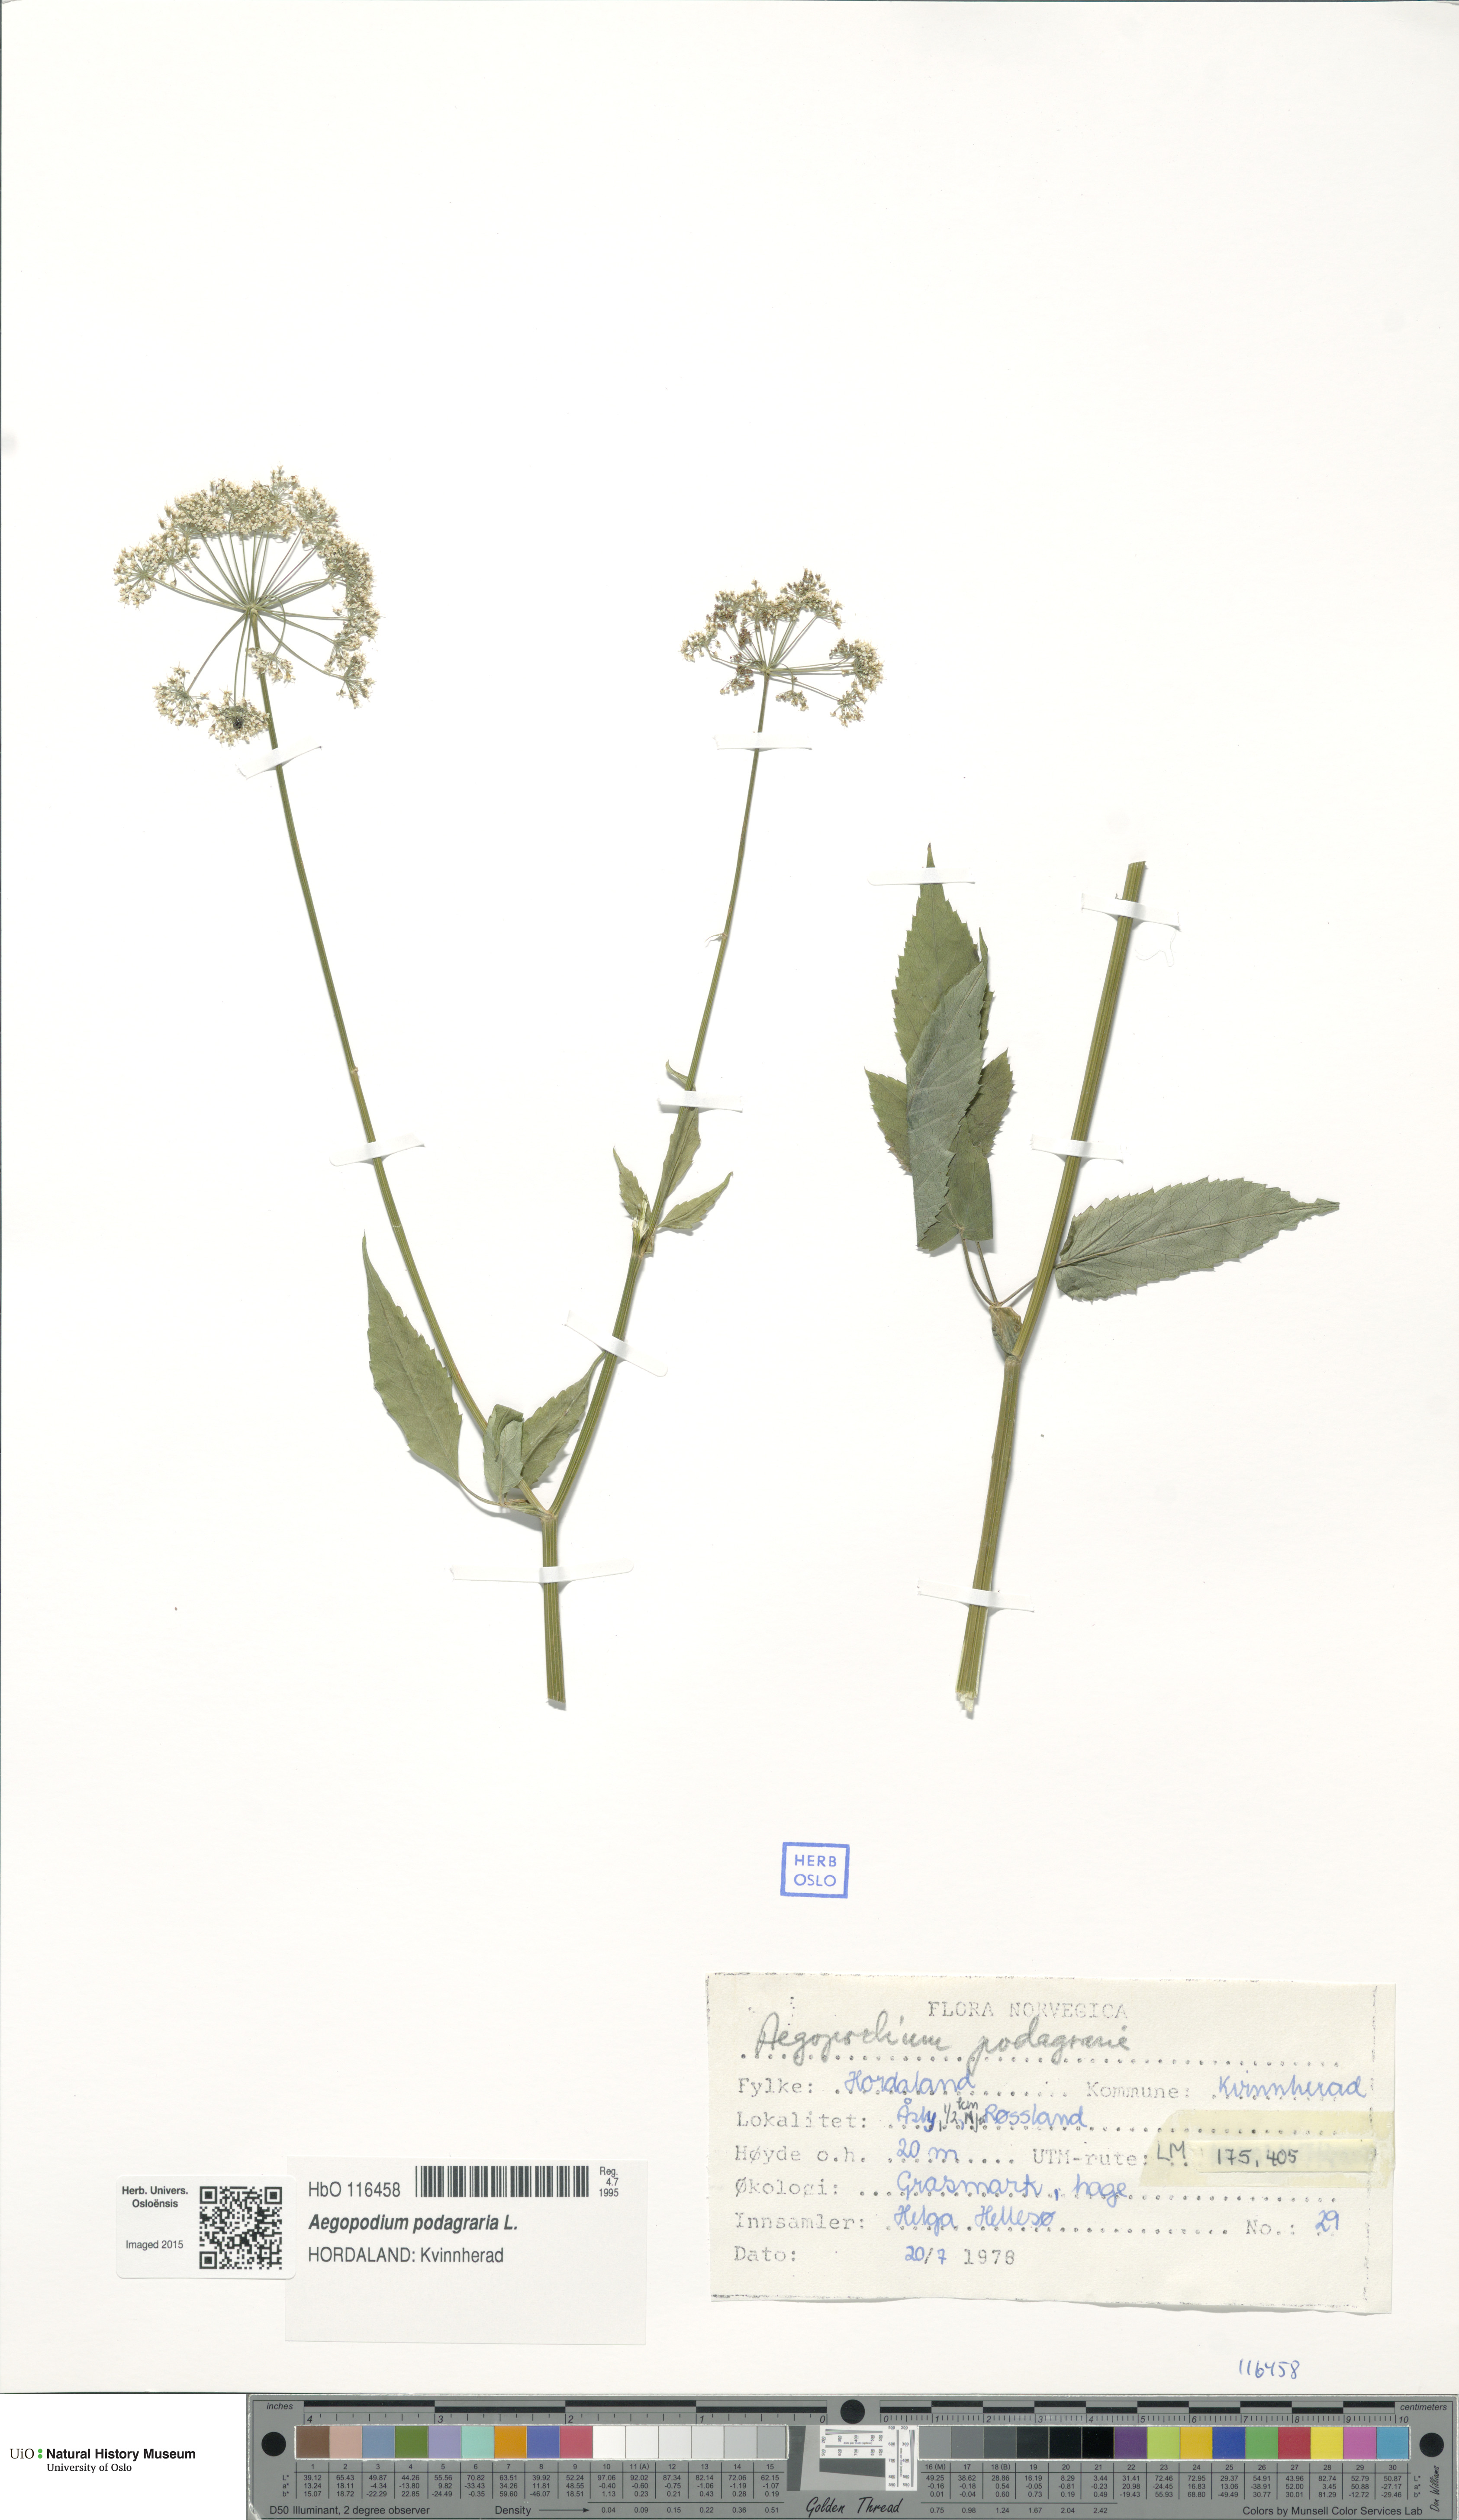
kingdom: Plantae
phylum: Tracheophyta
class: Magnoliopsida
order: Apiales
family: Apiaceae
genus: Aegopodium
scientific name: Aegopodium podagraria
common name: Ground-elder
